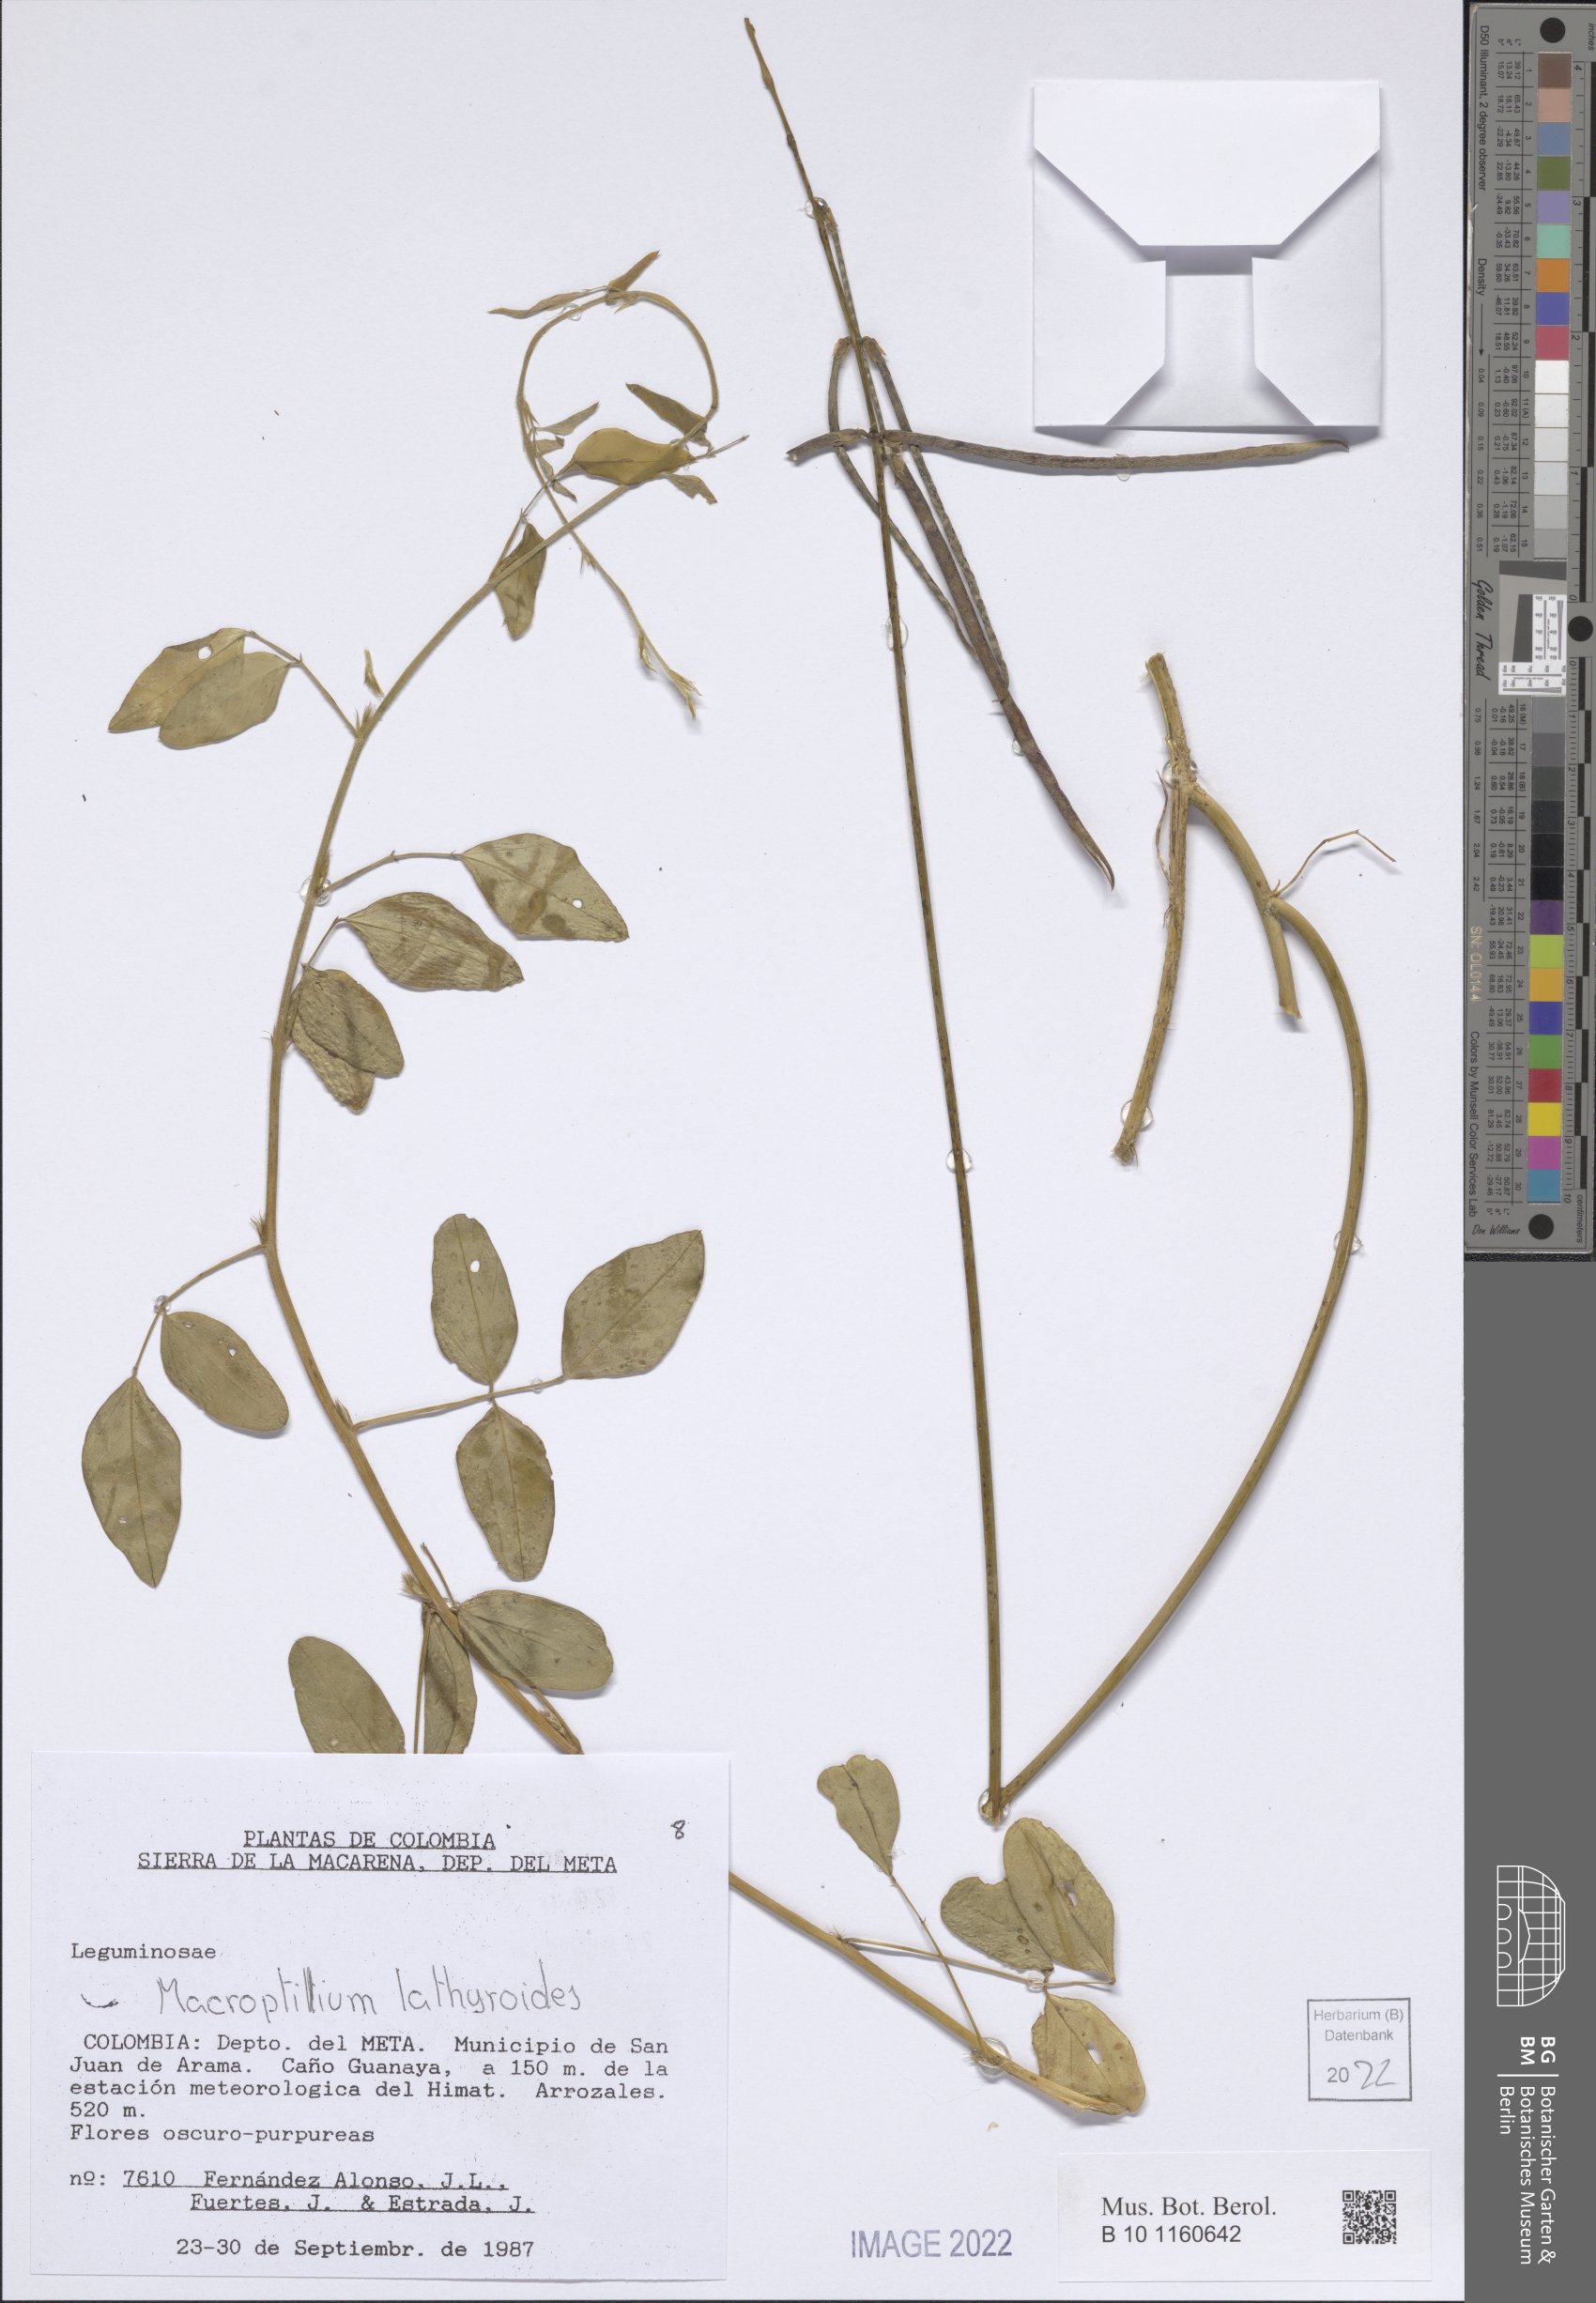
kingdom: Plantae
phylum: Tracheophyta
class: Magnoliopsida
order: Fabales
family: Fabaceae
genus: Macroptilium
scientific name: Macroptilium lathyroides
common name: Wild bushbean
